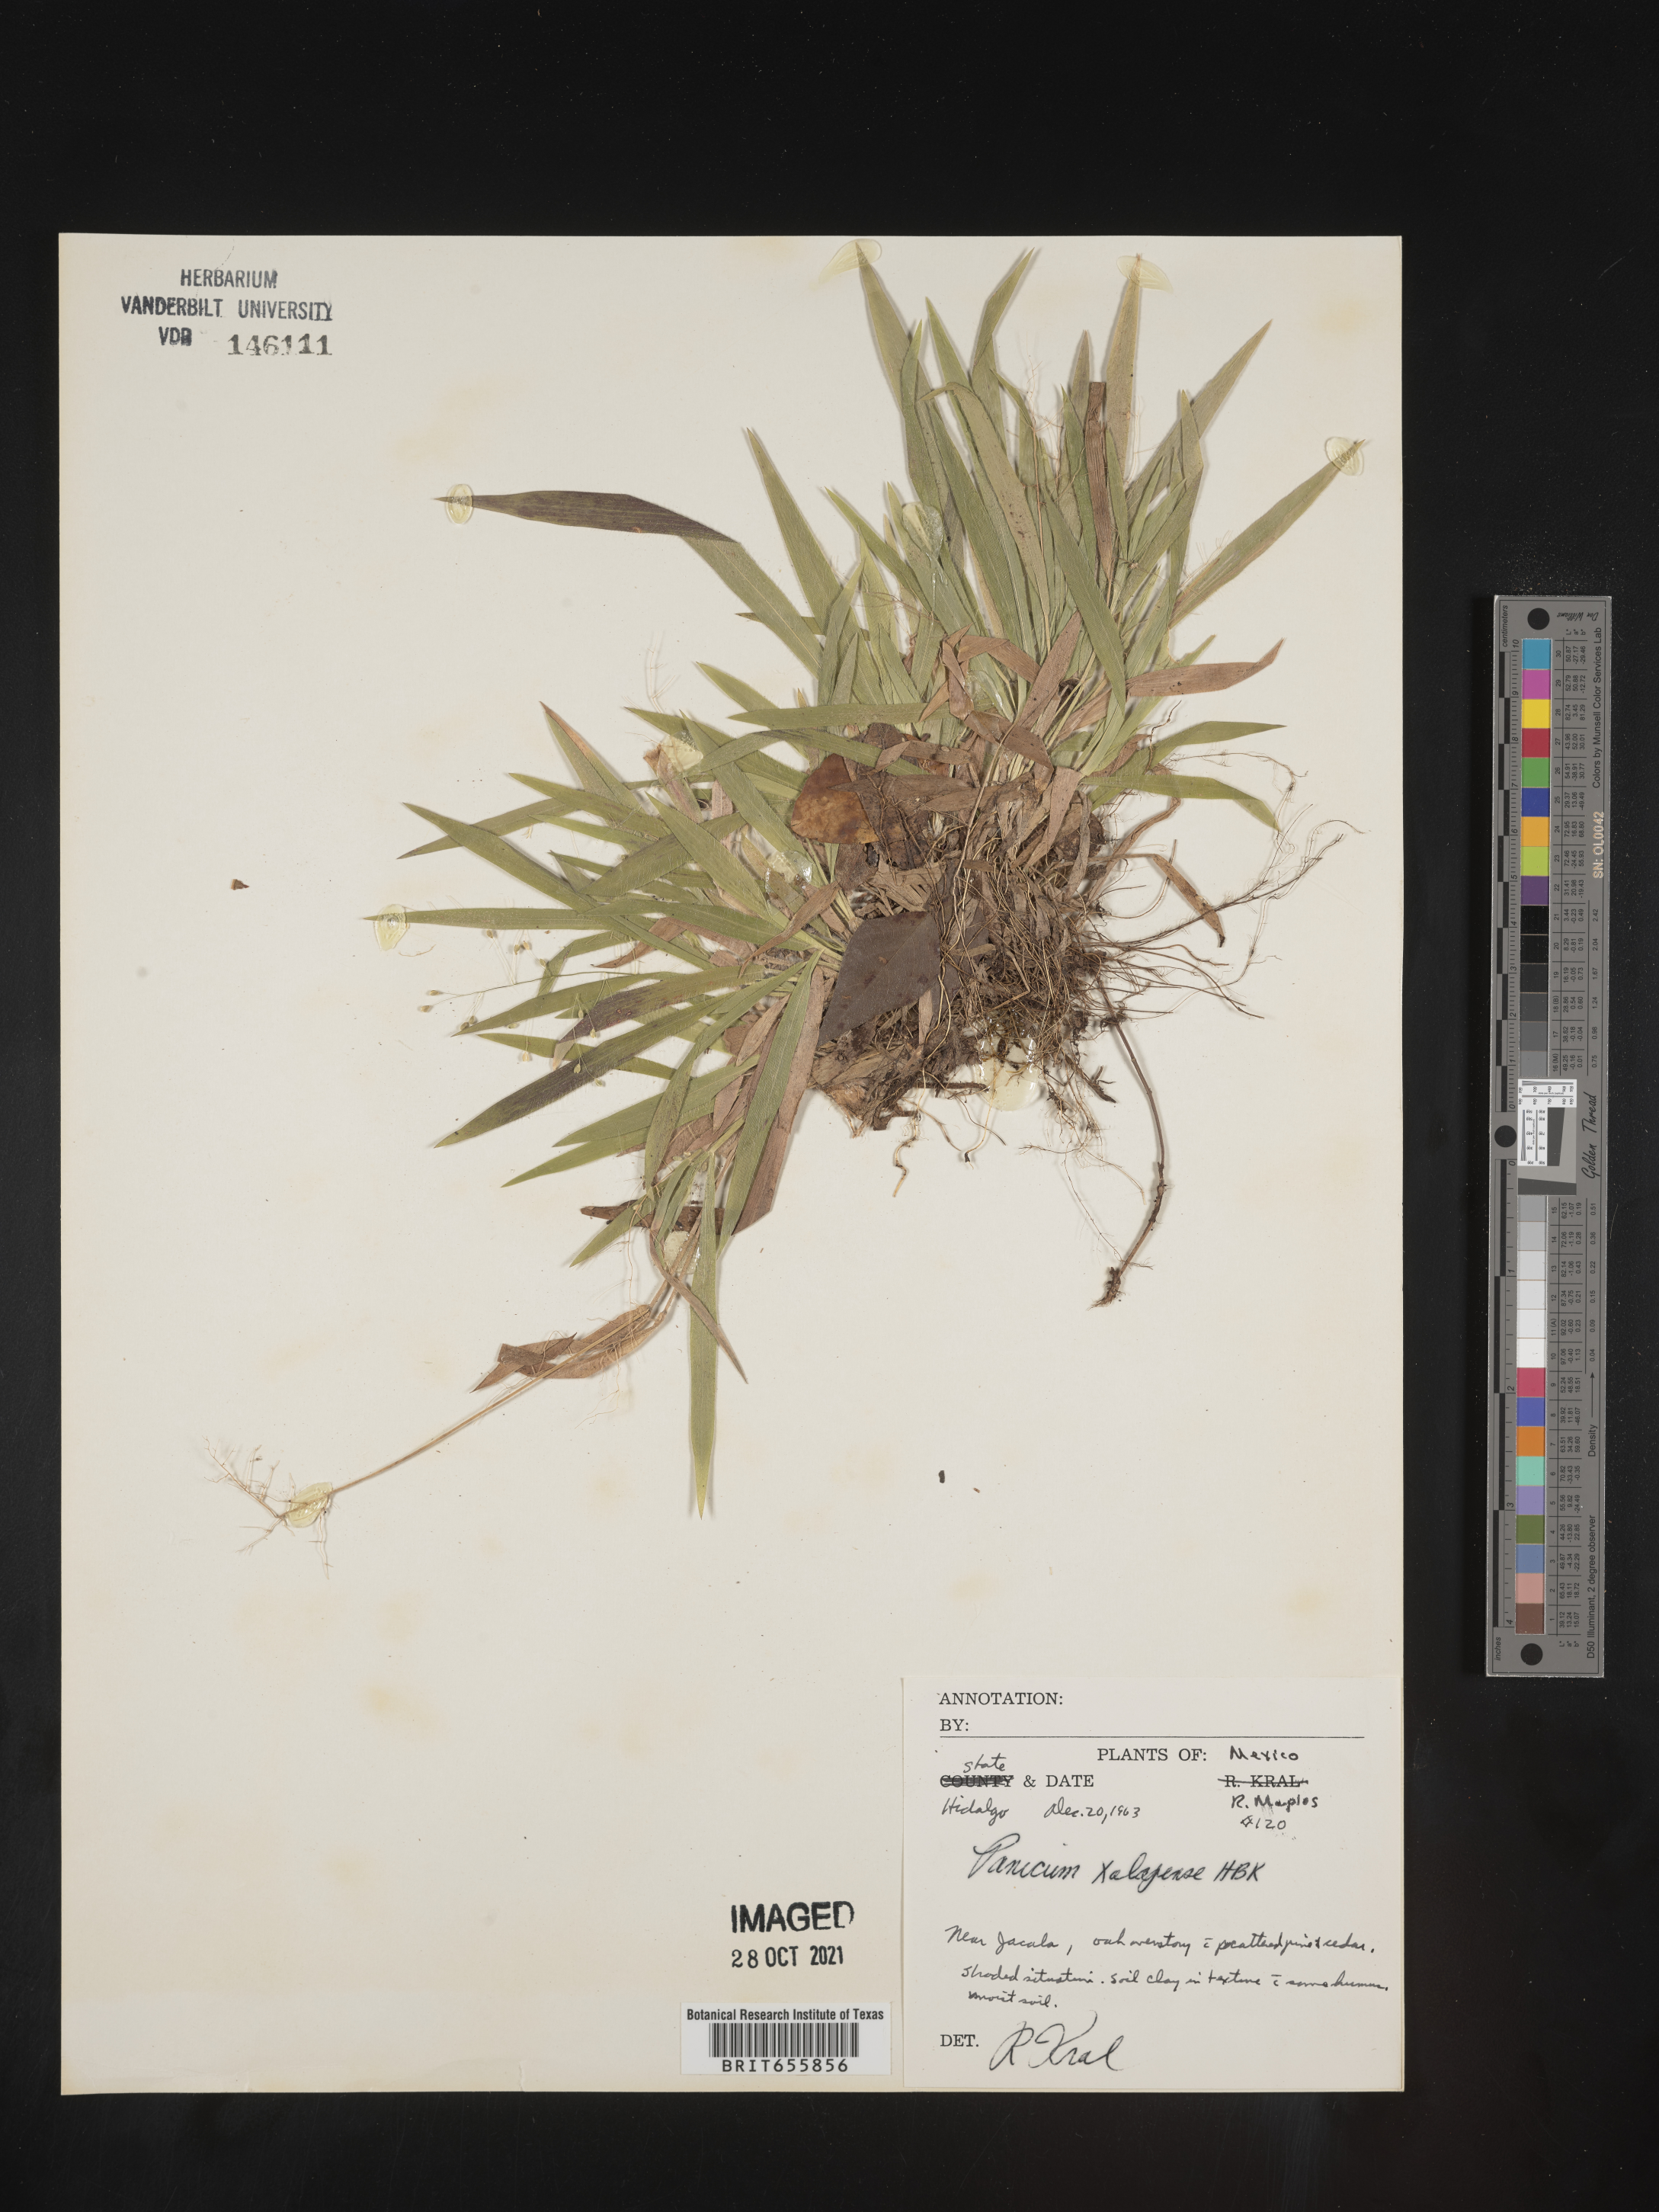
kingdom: Plantae
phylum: Tracheophyta
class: Liliopsida
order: Poales
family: Poaceae
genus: Panicum
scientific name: Panicum
